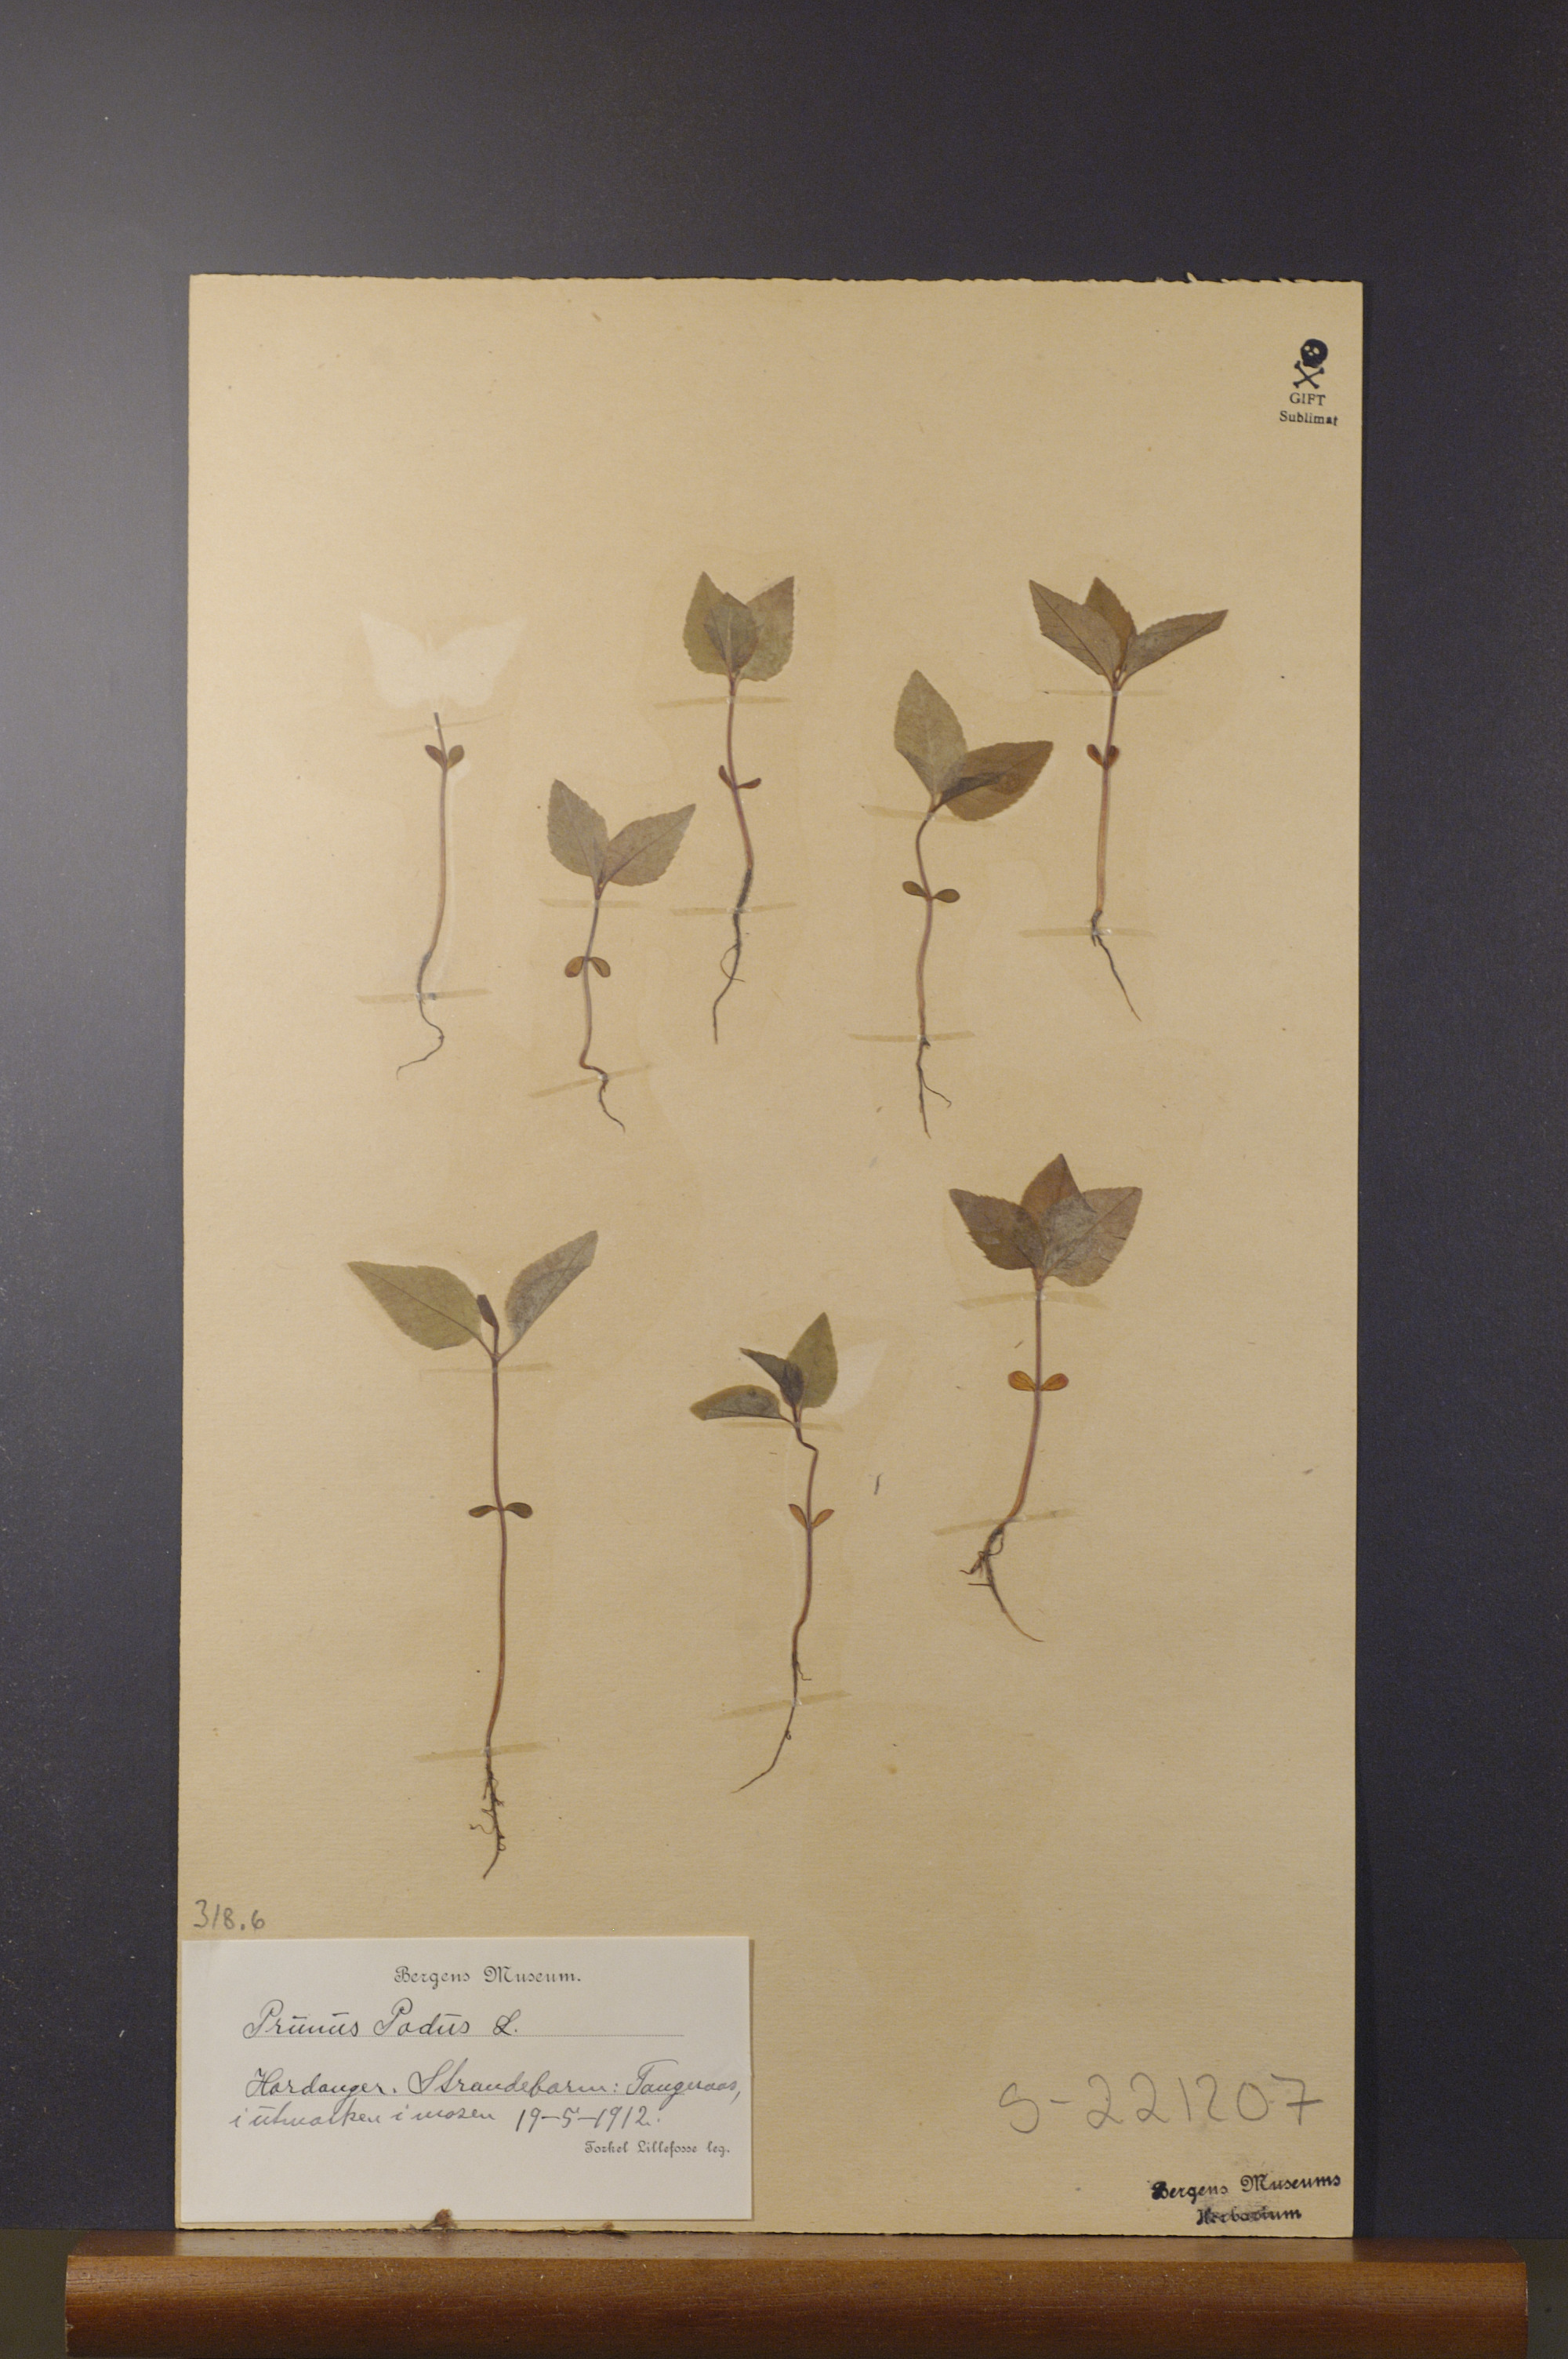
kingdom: Plantae
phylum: Tracheophyta
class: Magnoliopsida
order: Rosales
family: Rosaceae
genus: Prunus
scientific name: Prunus padus
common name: Bird cherry
